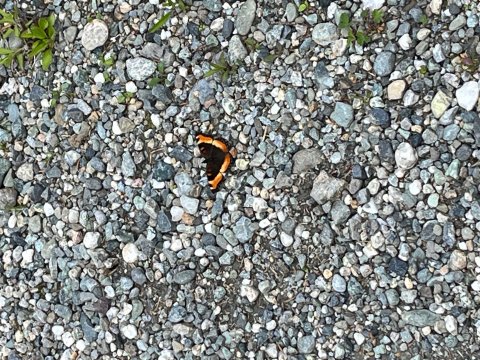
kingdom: Animalia
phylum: Arthropoda
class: Insecta
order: Lepidoptera
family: Nymphalidae
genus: Aglais
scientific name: Aglais milberti
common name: Milbert's Tortoiseshell
